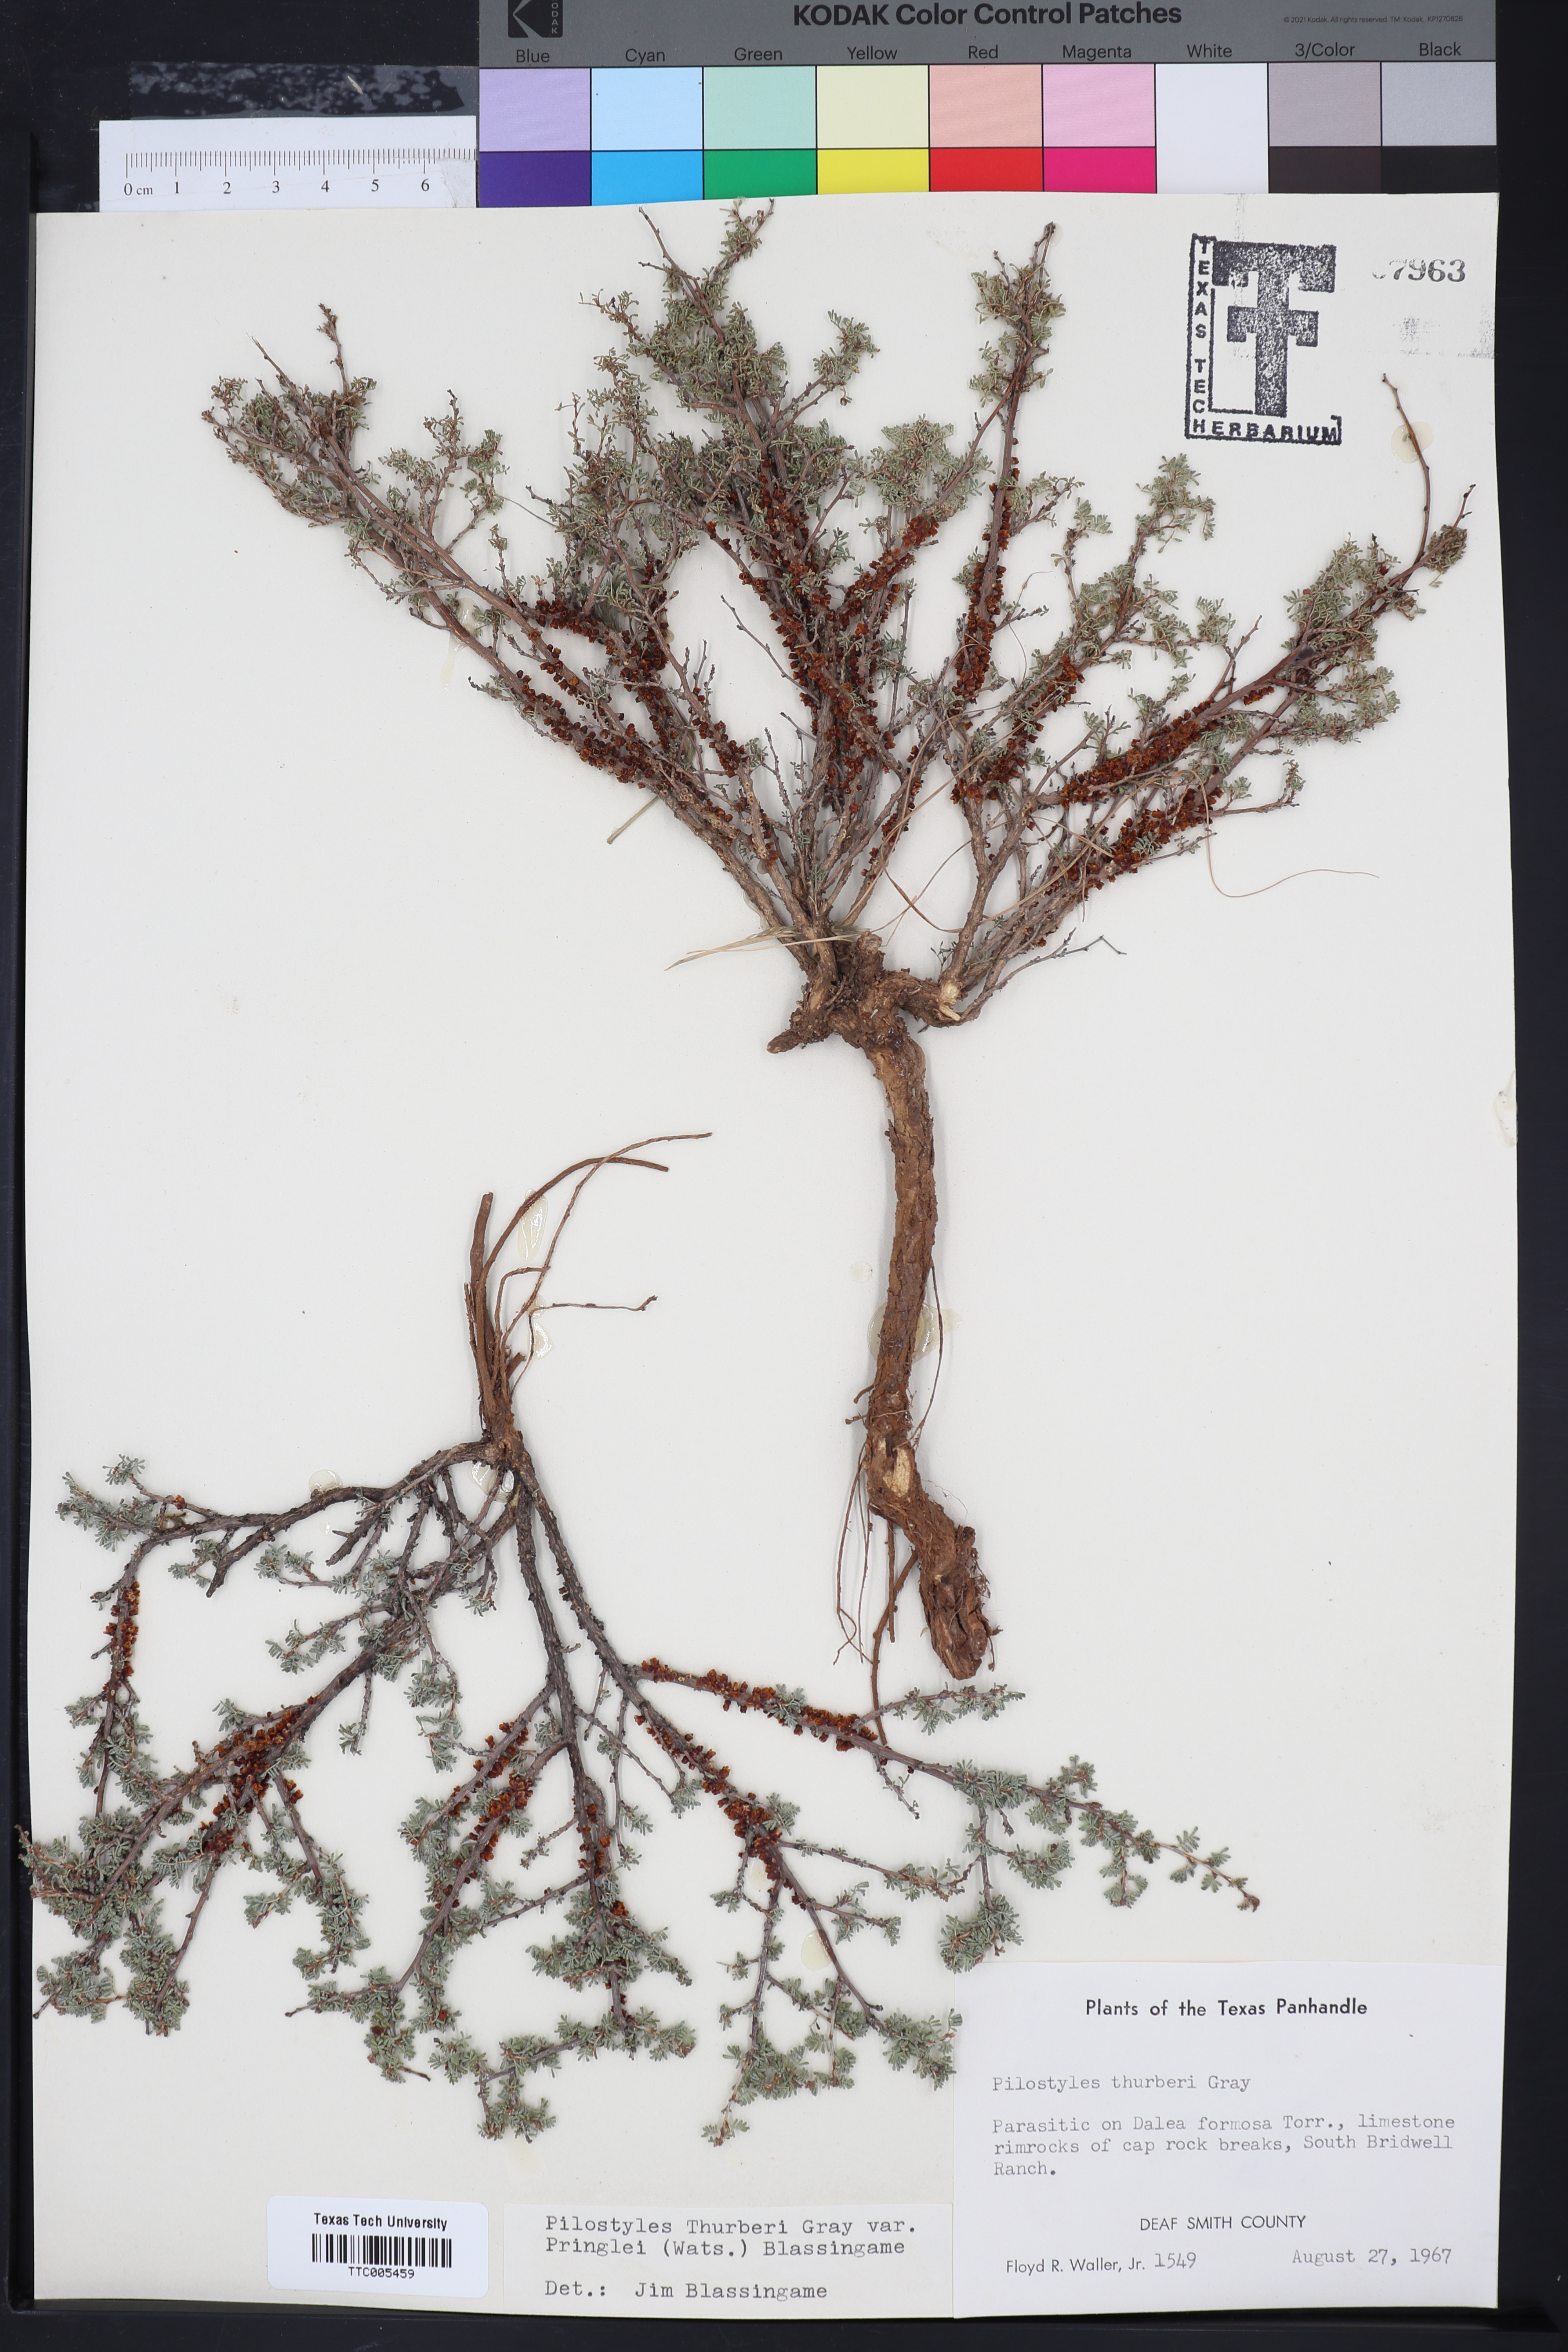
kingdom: Plantae
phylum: Tracheophyta
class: Magnoliopsida
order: Cucurbitales
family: Apodanthaceae
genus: Pilostyles
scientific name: Pilostyles thurberi
